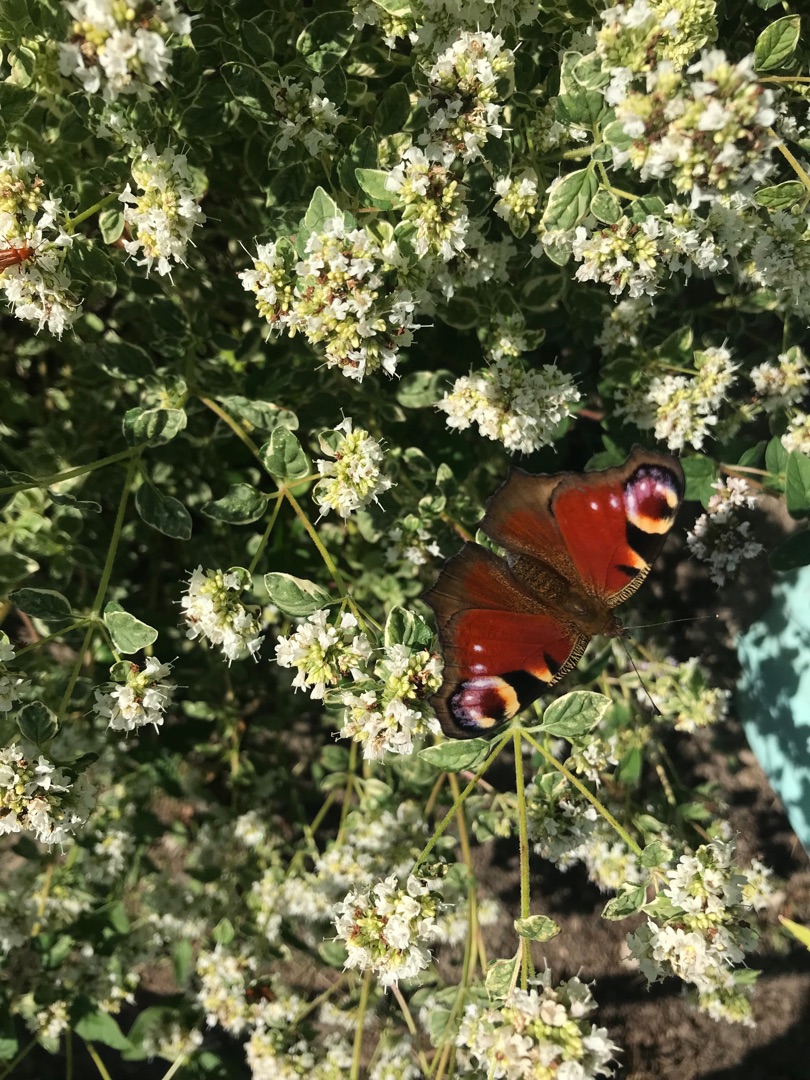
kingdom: Animalia
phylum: Arthropoda
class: Insecta
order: Lepidoptera
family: Nymphalidae
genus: Aglais
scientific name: Aglais io
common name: Dagpåfugleøje
